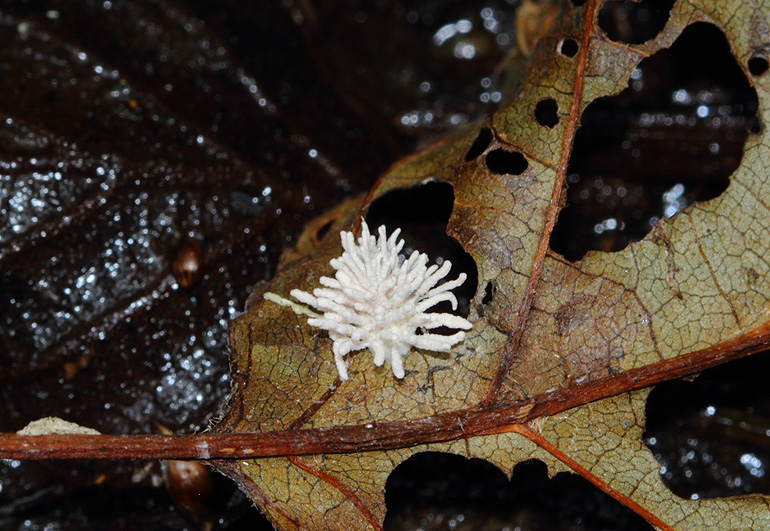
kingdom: Fungi
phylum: Ascomycota
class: Sordariomycetes
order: Hypocreales
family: Cordycipitaceae
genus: Gibellula
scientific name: Gibellula arachnophila
